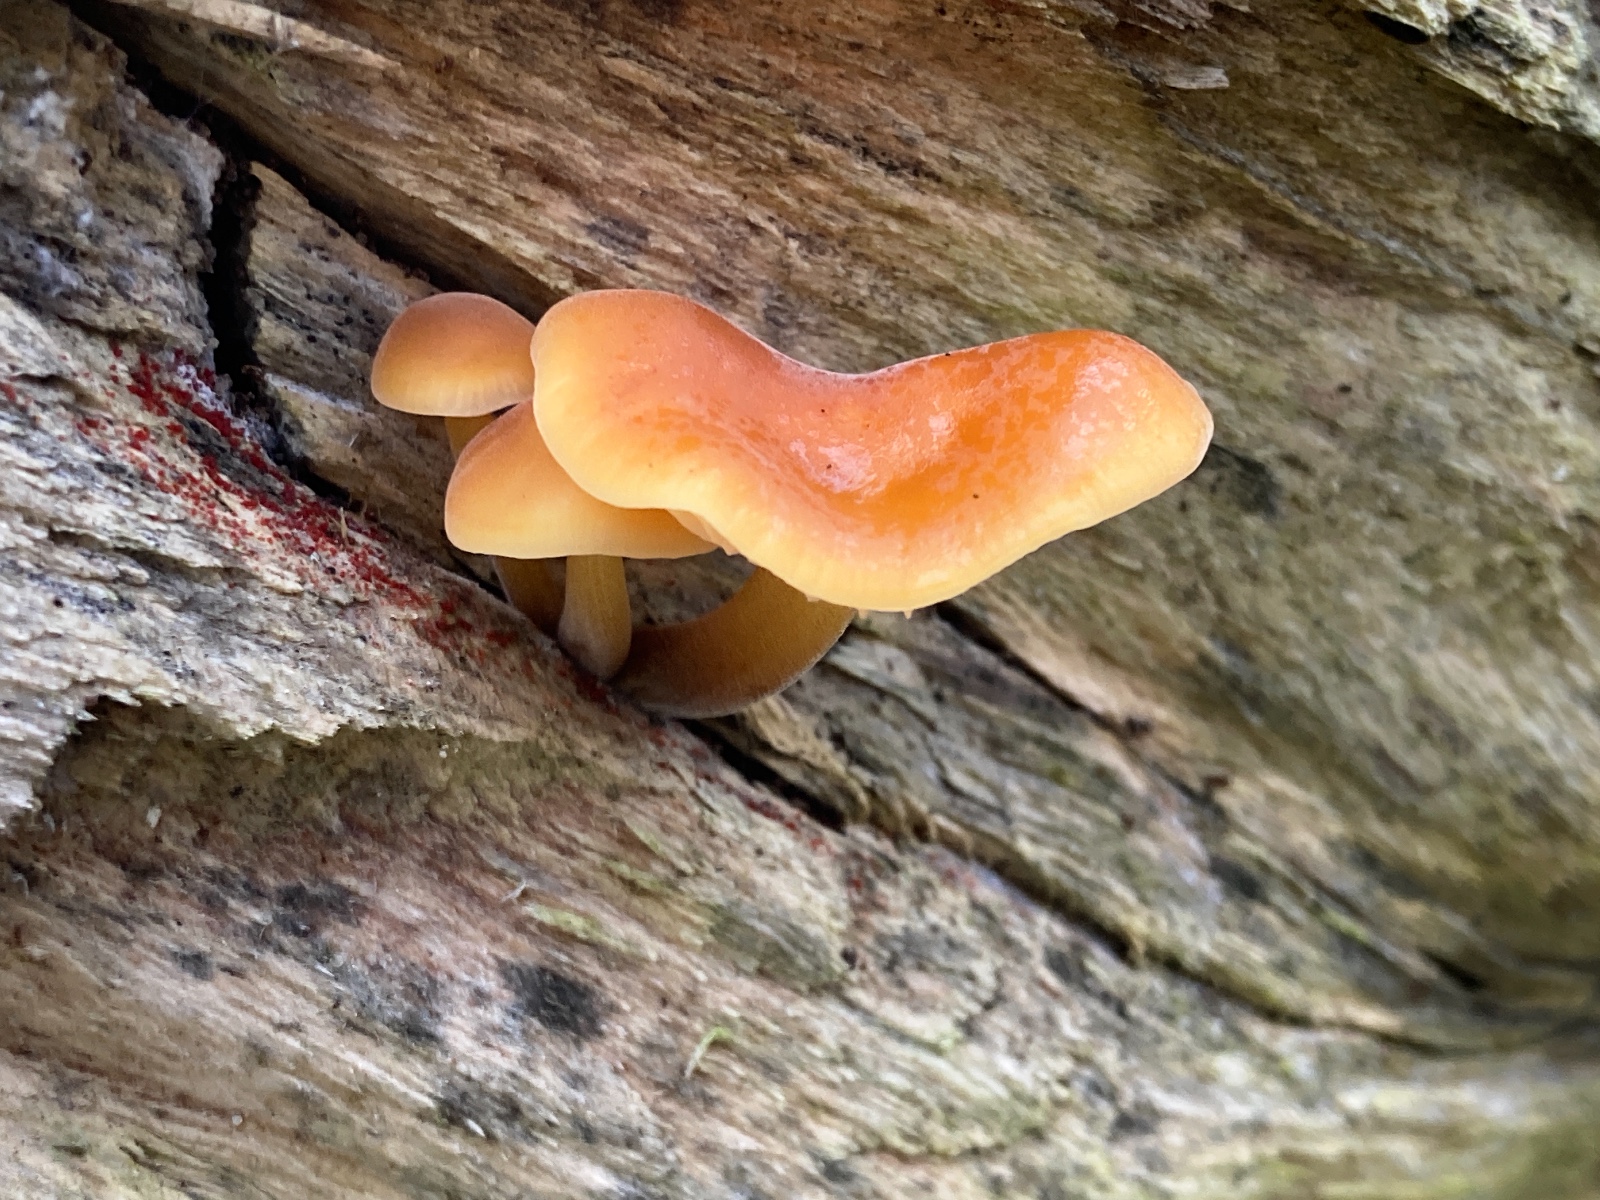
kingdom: Fungi
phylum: Basidiomycota
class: Agaricomycetes
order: Agaricales
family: Physalacriaceae
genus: Flammulina
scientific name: Flammulina velutipes
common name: gul fløjlsfod
